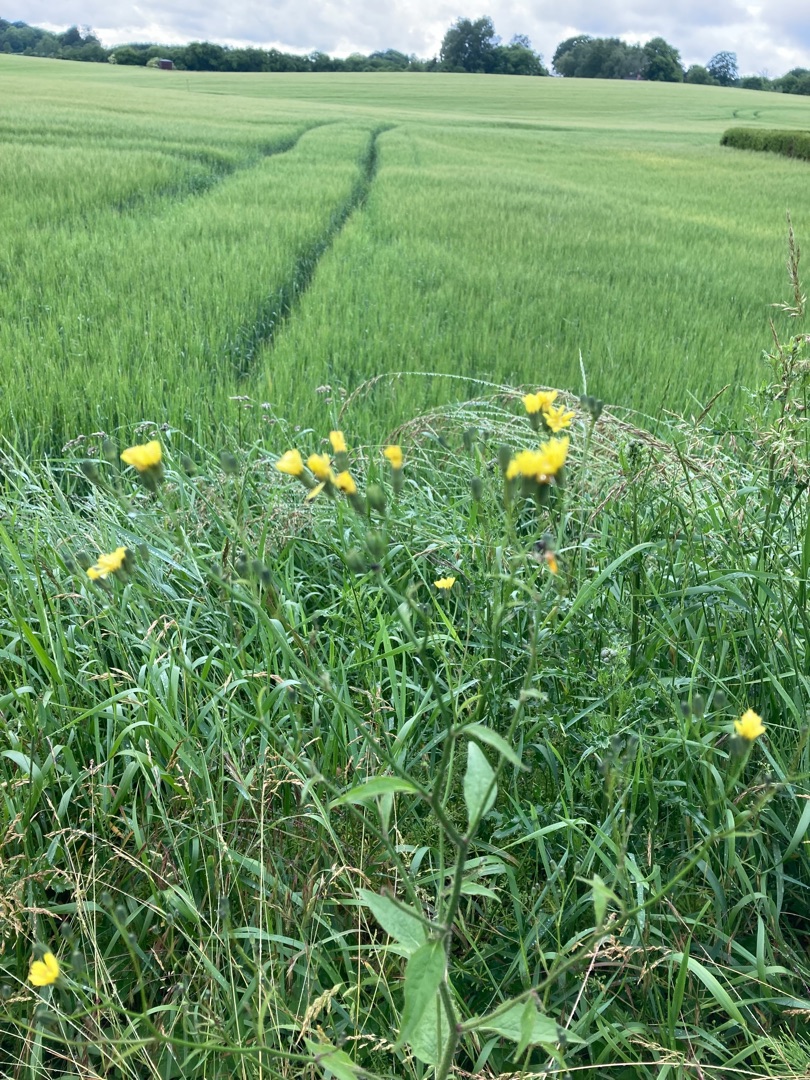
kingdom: Plantae
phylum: Tracheophyta
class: Magnoliopsida
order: Asterales
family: Asteraceae
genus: Lapsana
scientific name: Lapsana communis
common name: Haremad
